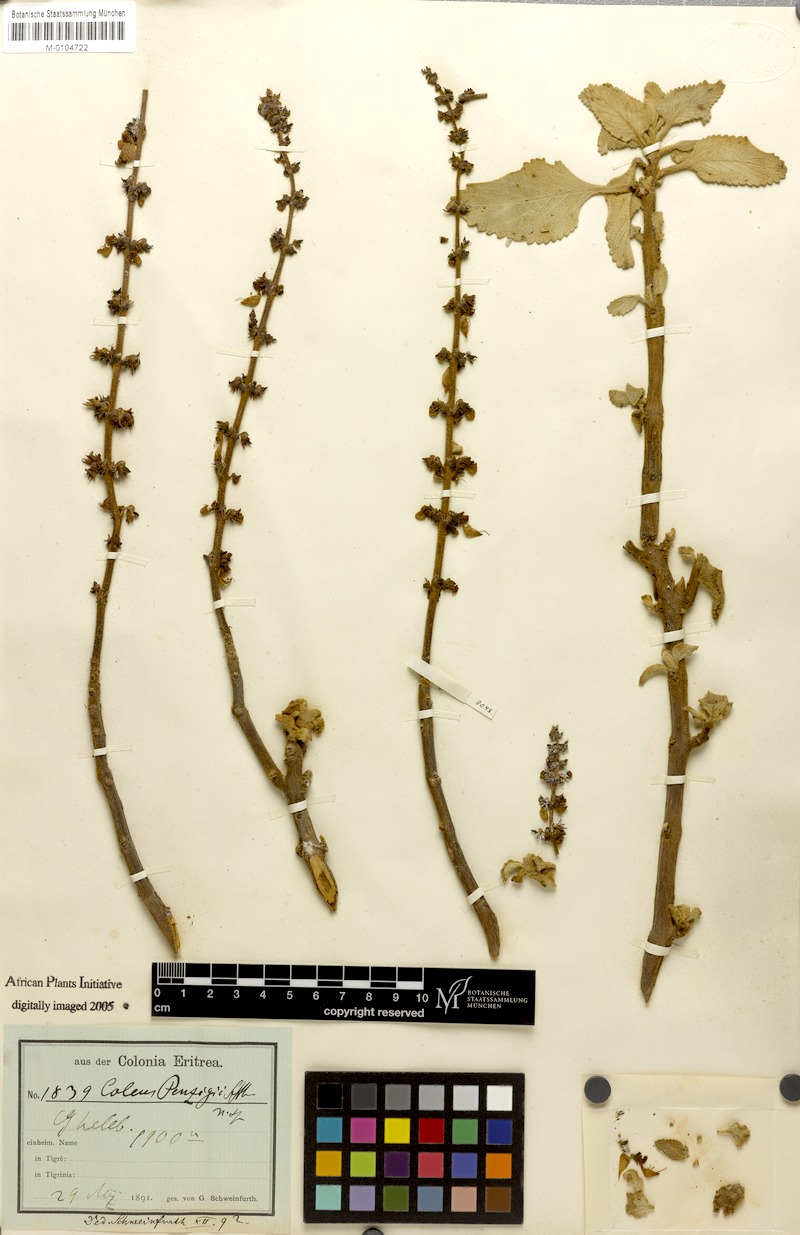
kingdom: Plantae
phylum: Tracheophyta
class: Magnoliopsida
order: Lamiales
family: Lamiaceae
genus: Coleus
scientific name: Coleus penzigii
